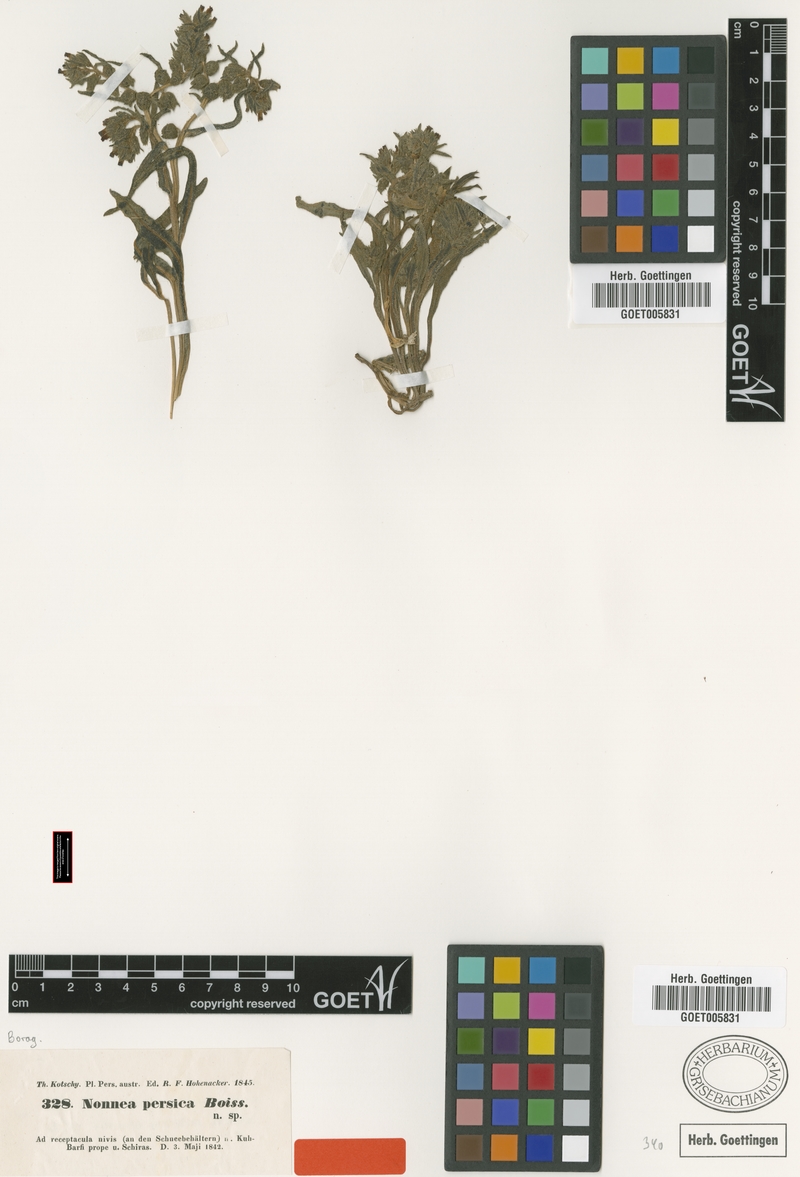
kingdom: Plantae
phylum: Tracheophyta
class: Magnoliopsida
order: Boraginales
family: Boraginaceae
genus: Nonea
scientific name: Nonea persica
